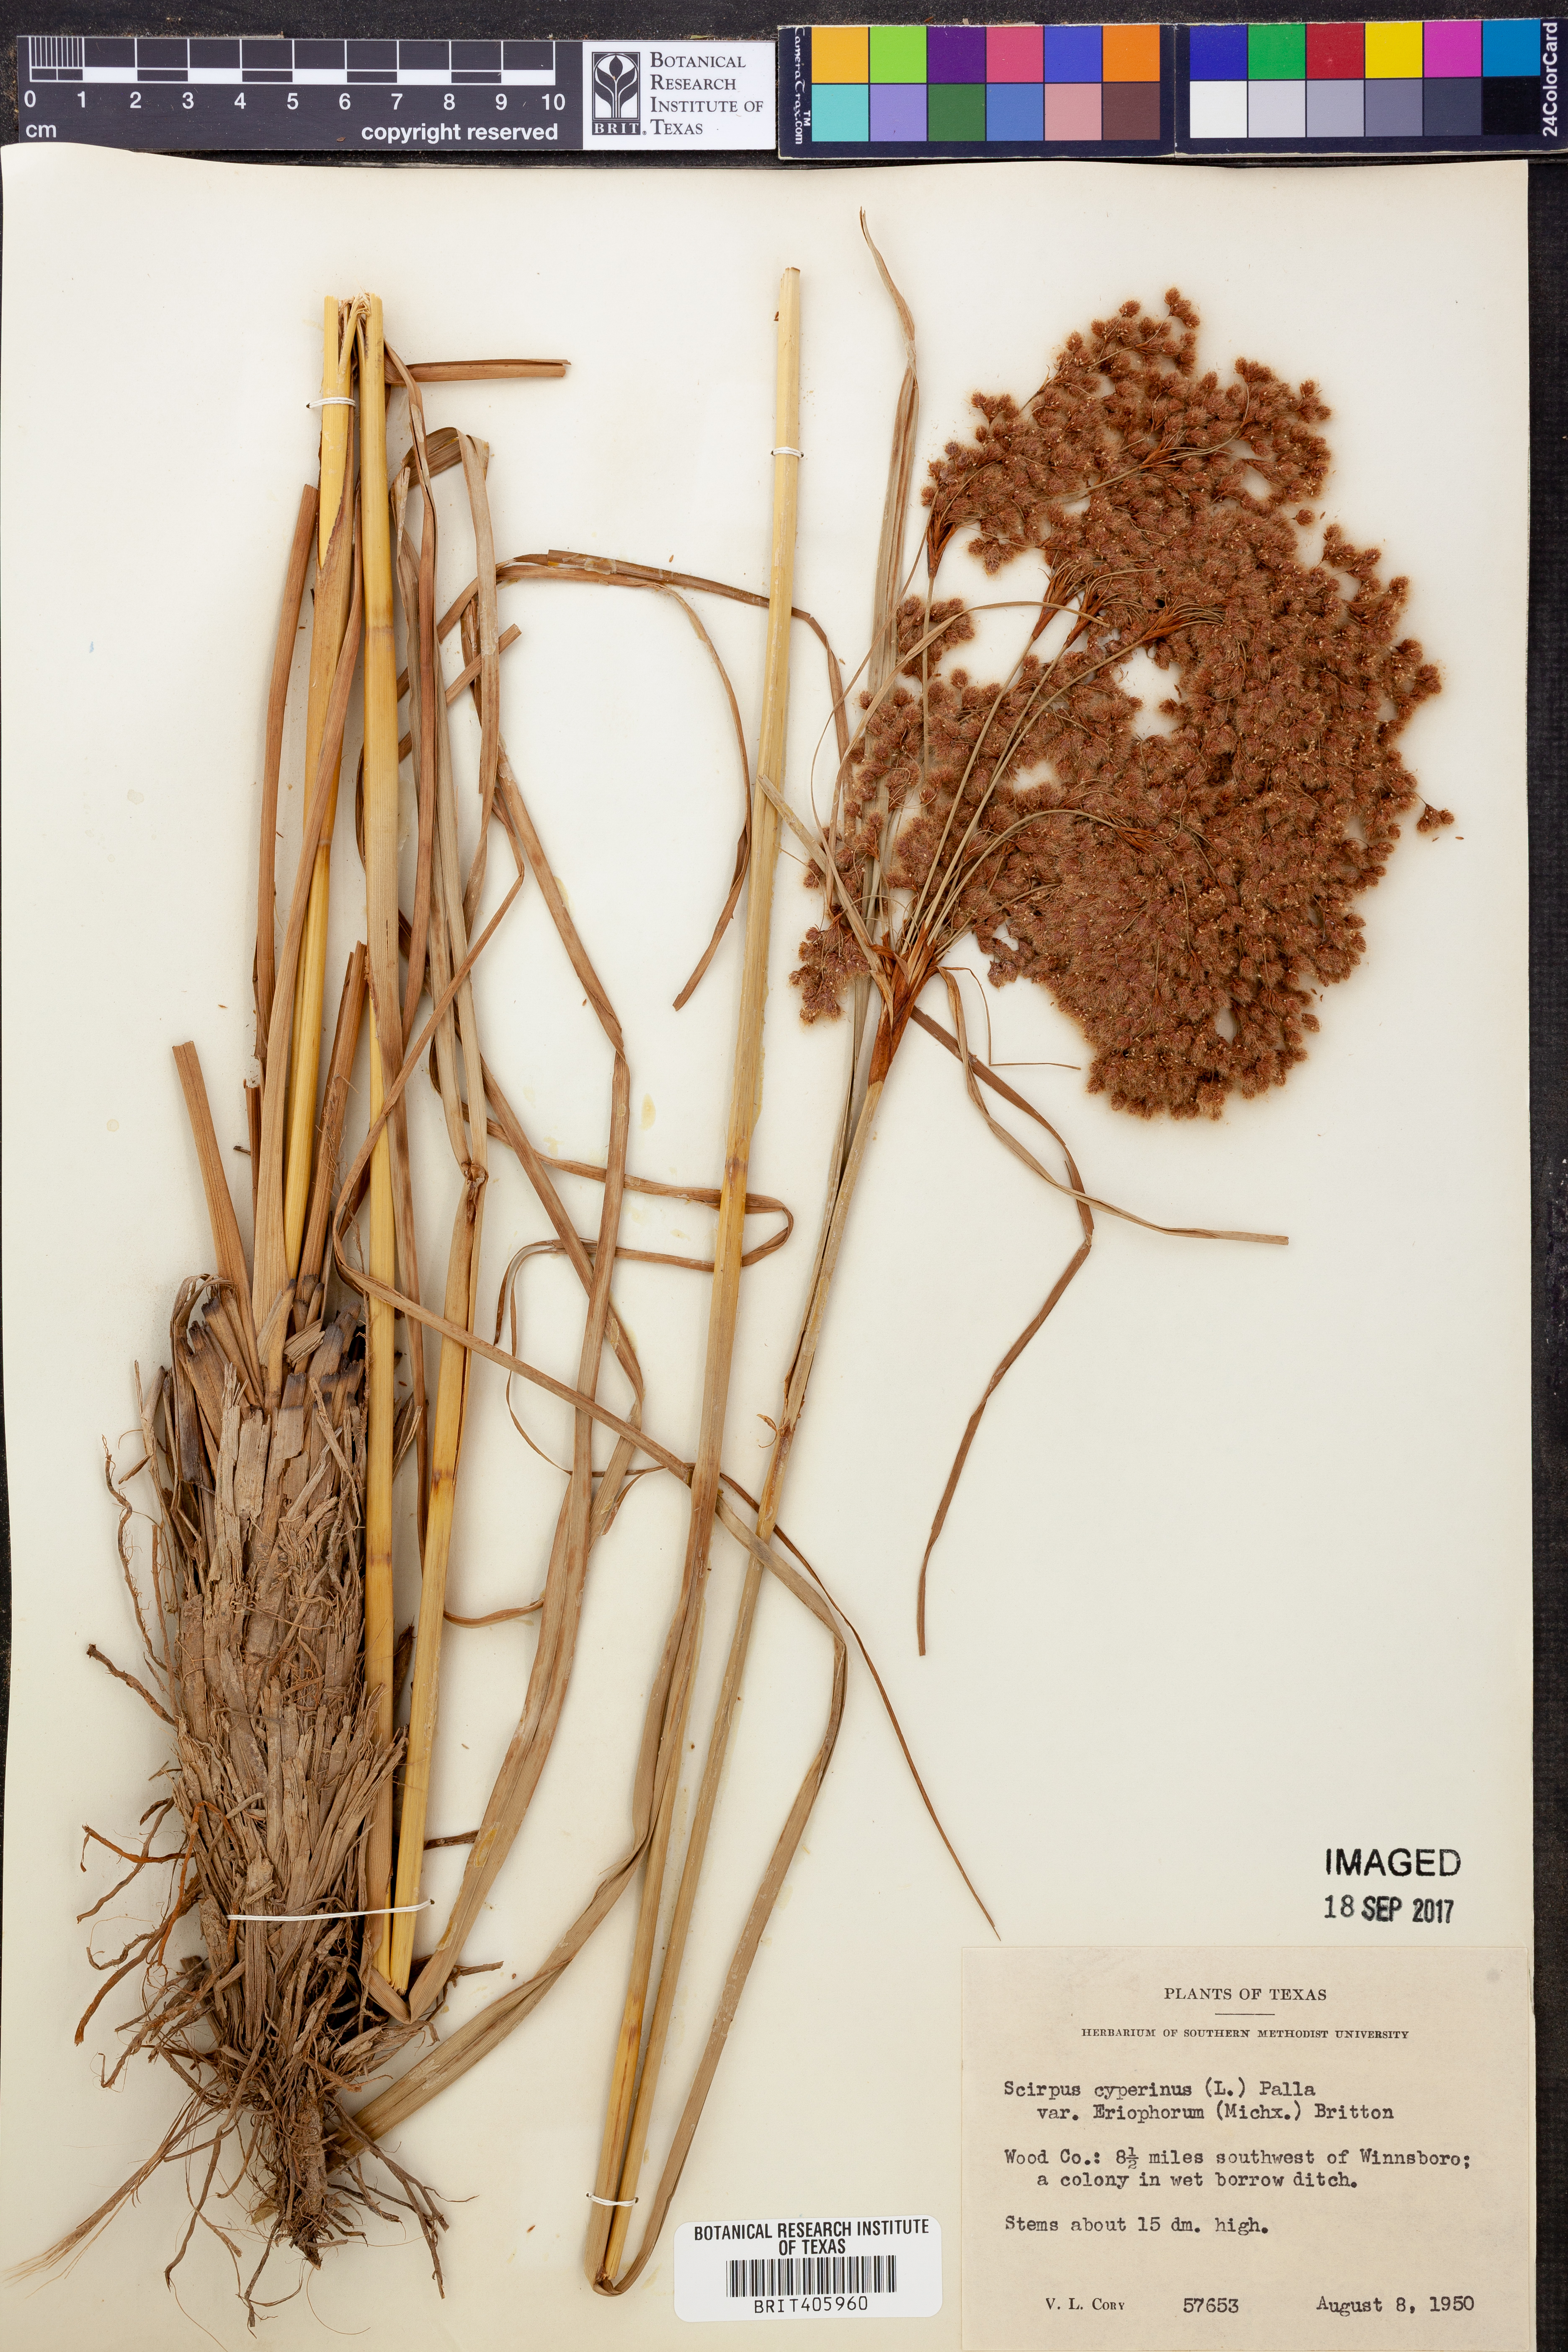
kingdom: Plantae
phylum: Tracheophyta
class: Liliopsida
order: Poales
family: Cyperaceae
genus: Scirpus
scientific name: Scirpus cyperinus
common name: Black-sheathed bulrush
